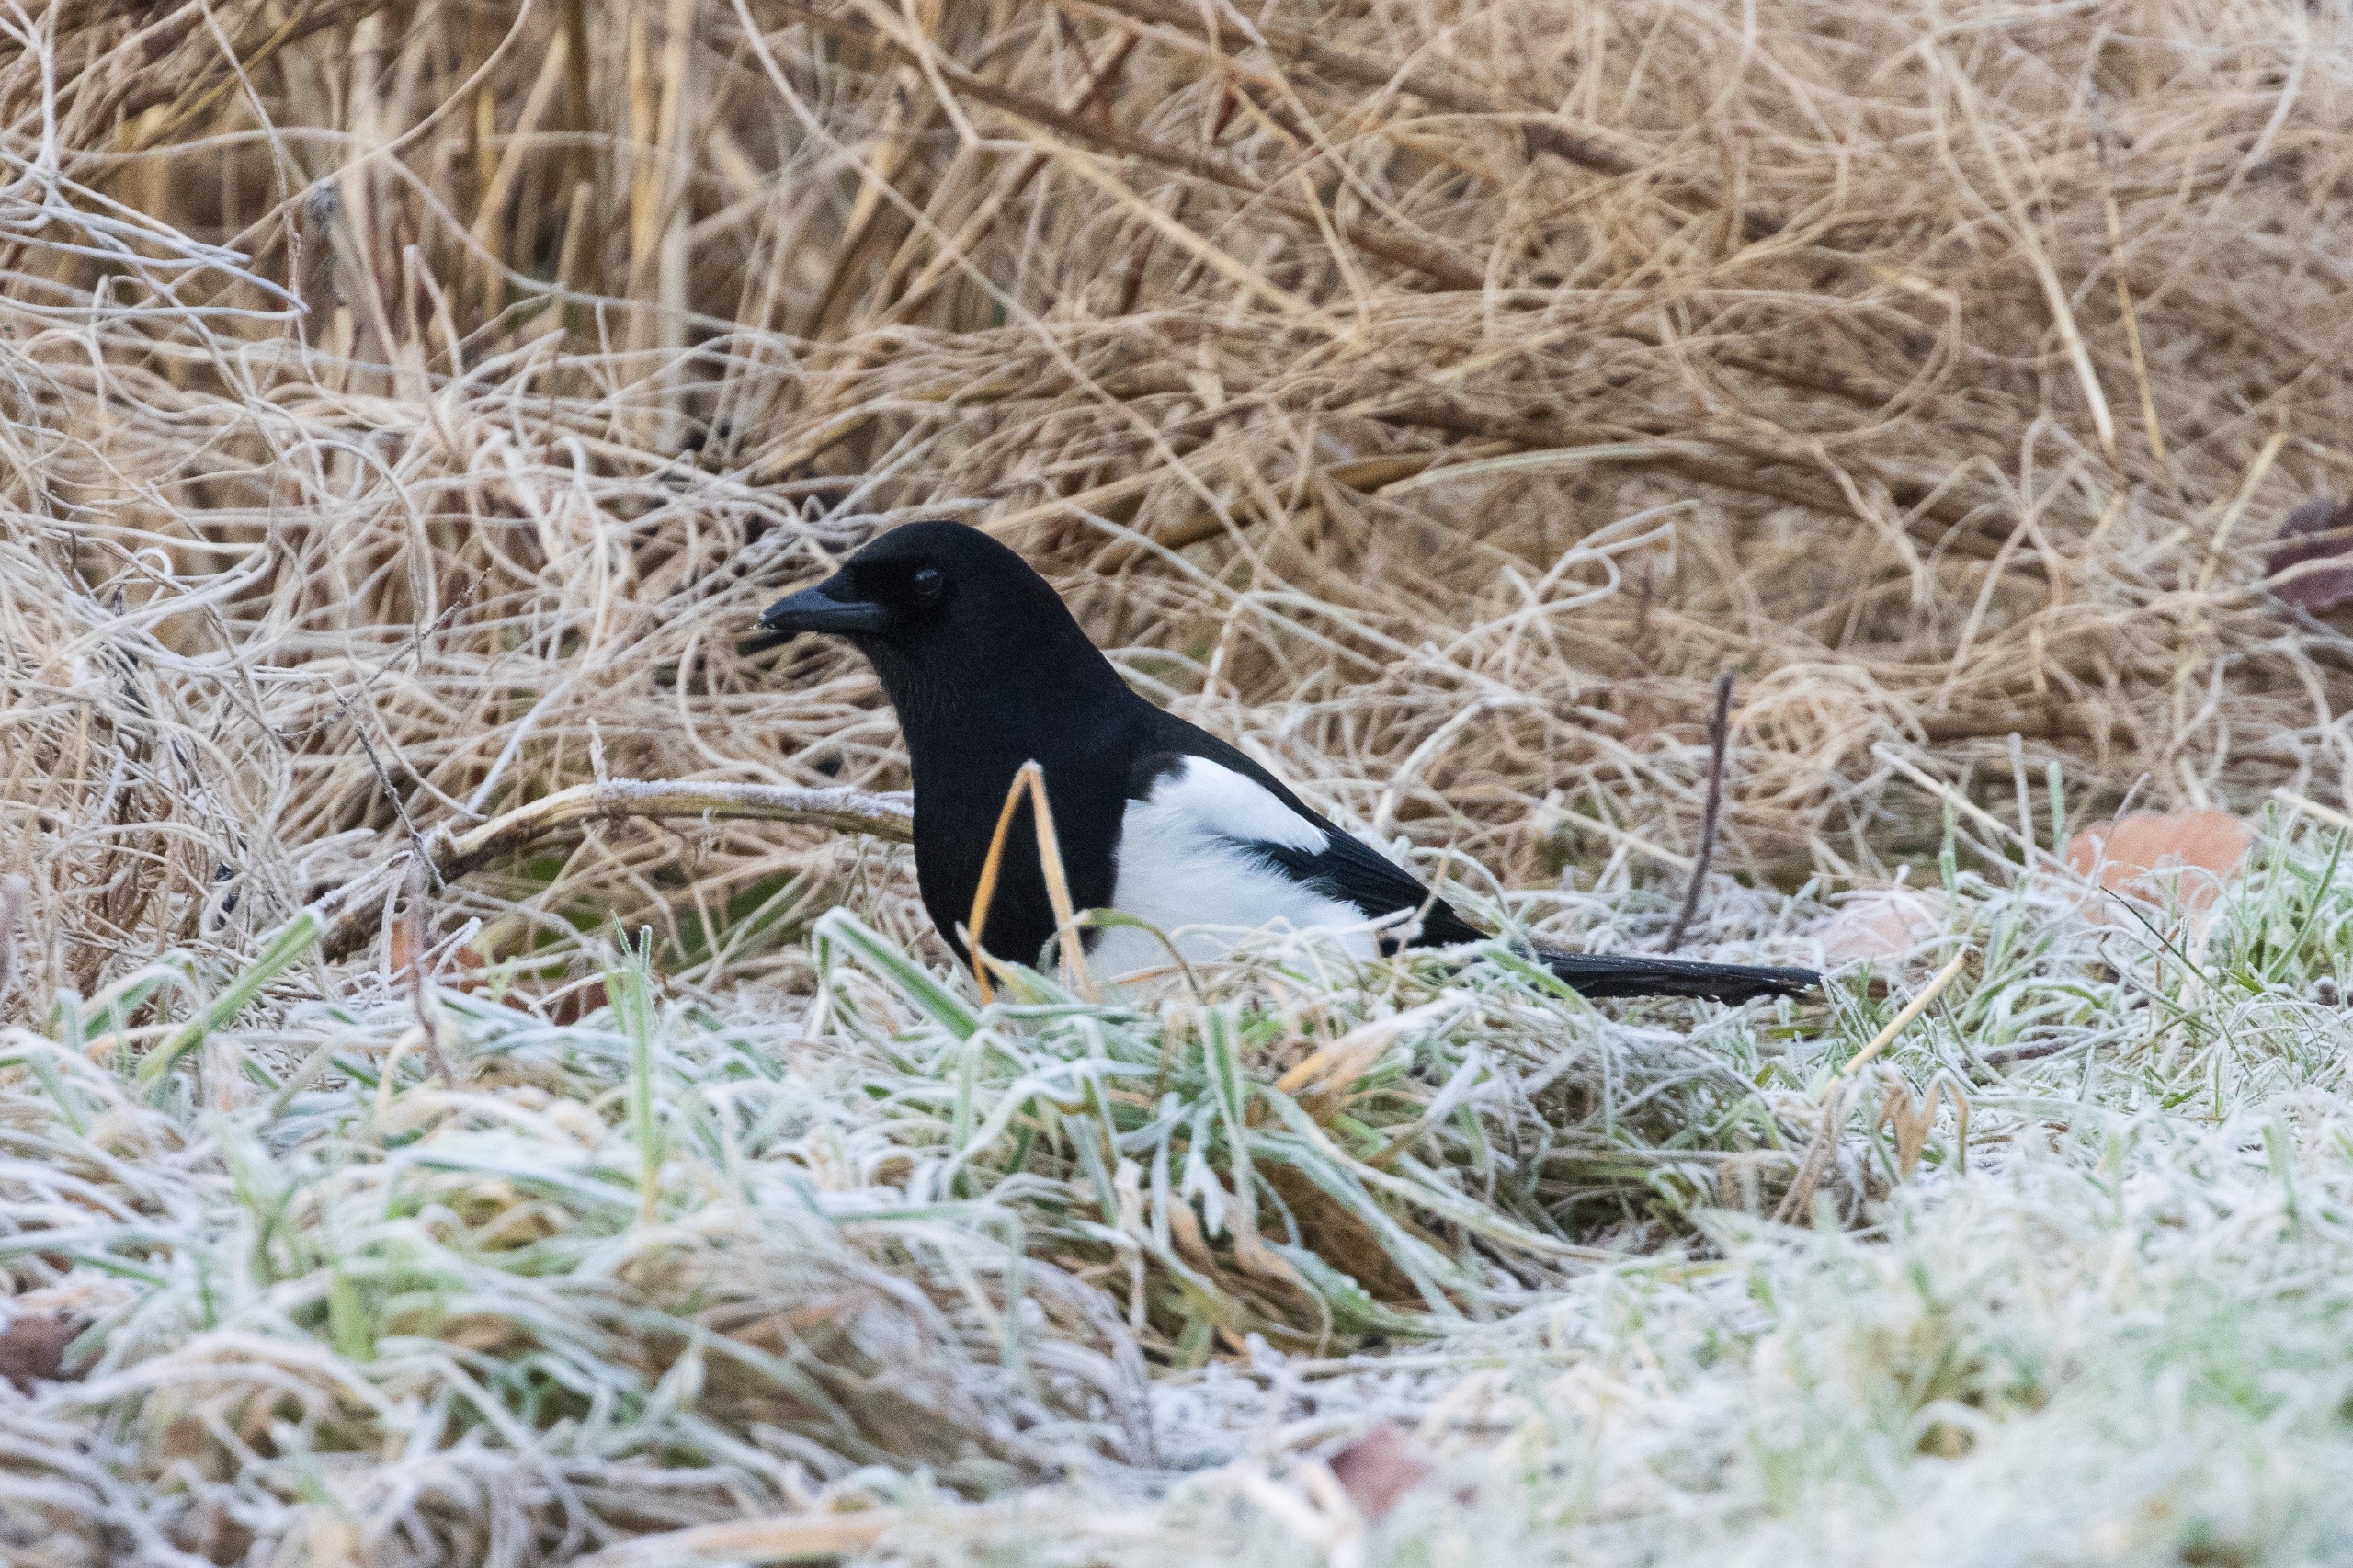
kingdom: Animalia
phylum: Chordata
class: Aves
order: Passeriformes
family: Corvidae
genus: Pica
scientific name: Pica pica
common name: Husskade
